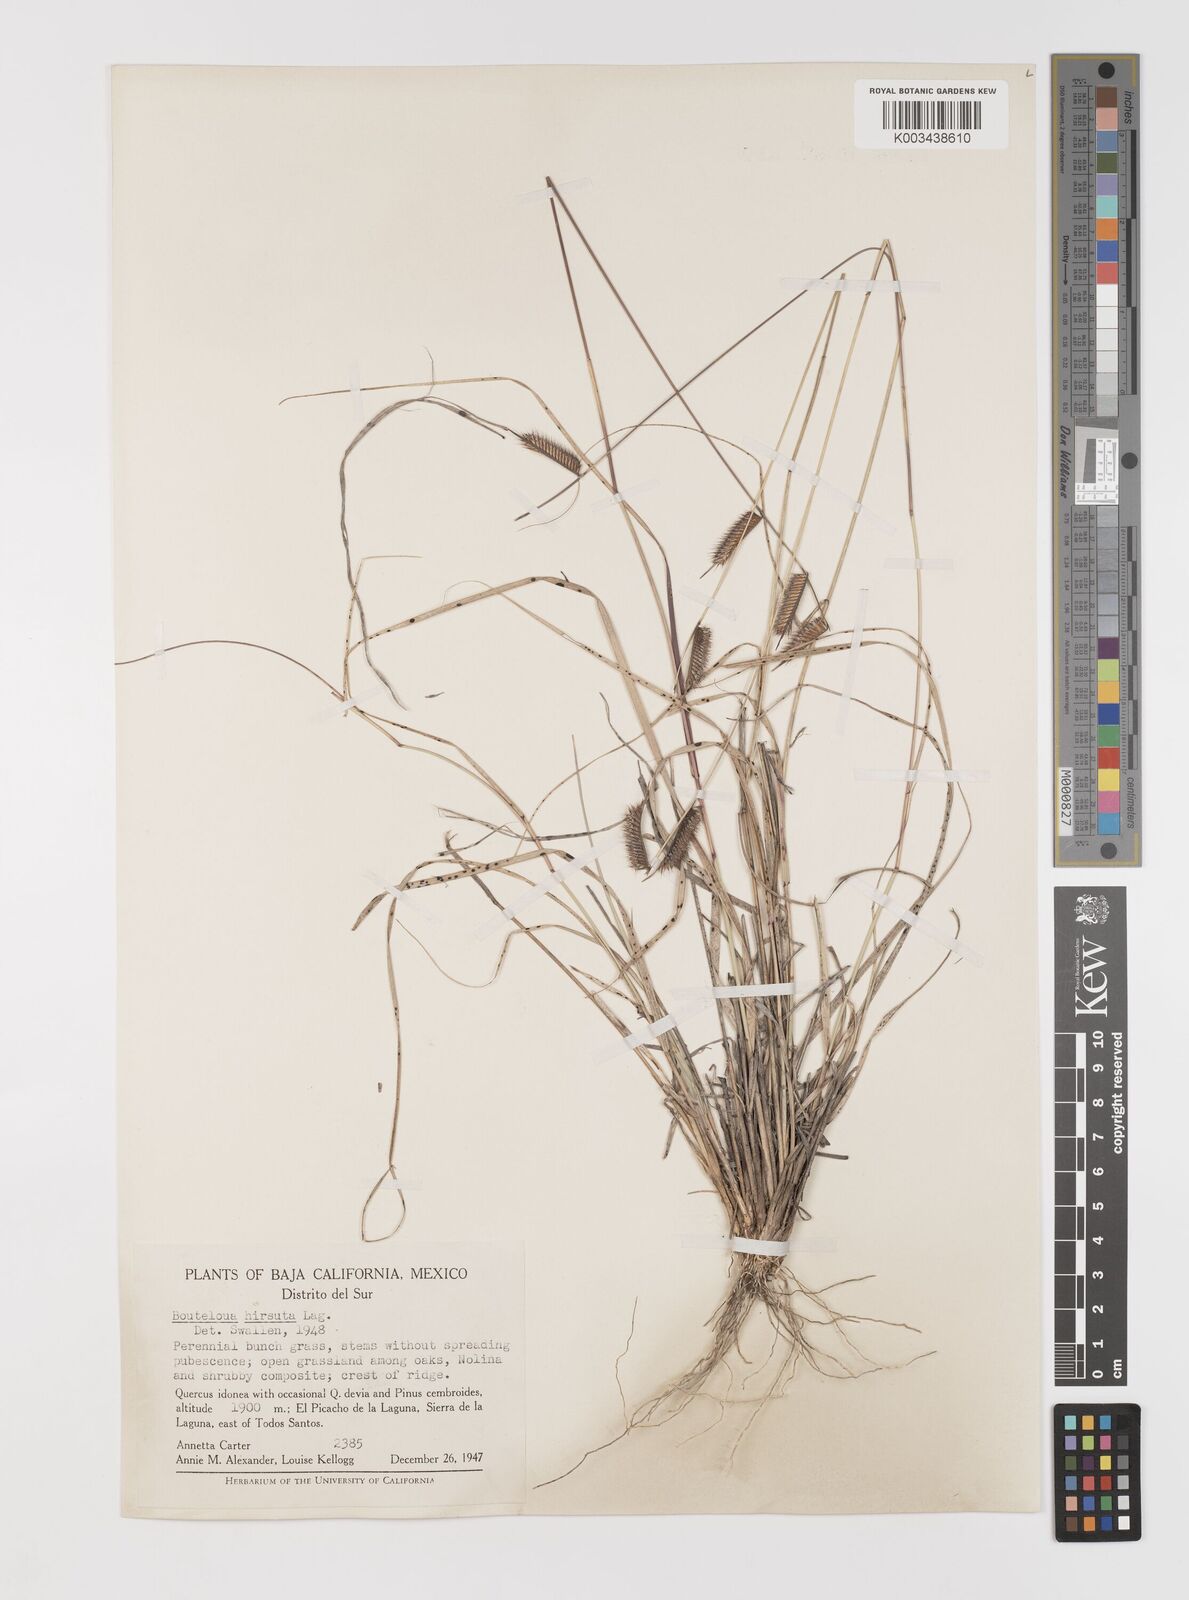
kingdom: Plantae
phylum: Tracheophyta
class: Liliopsida
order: Poales
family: Poaceae
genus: Bouteloua
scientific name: Bouteloua hirsuta
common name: Hairy grama
